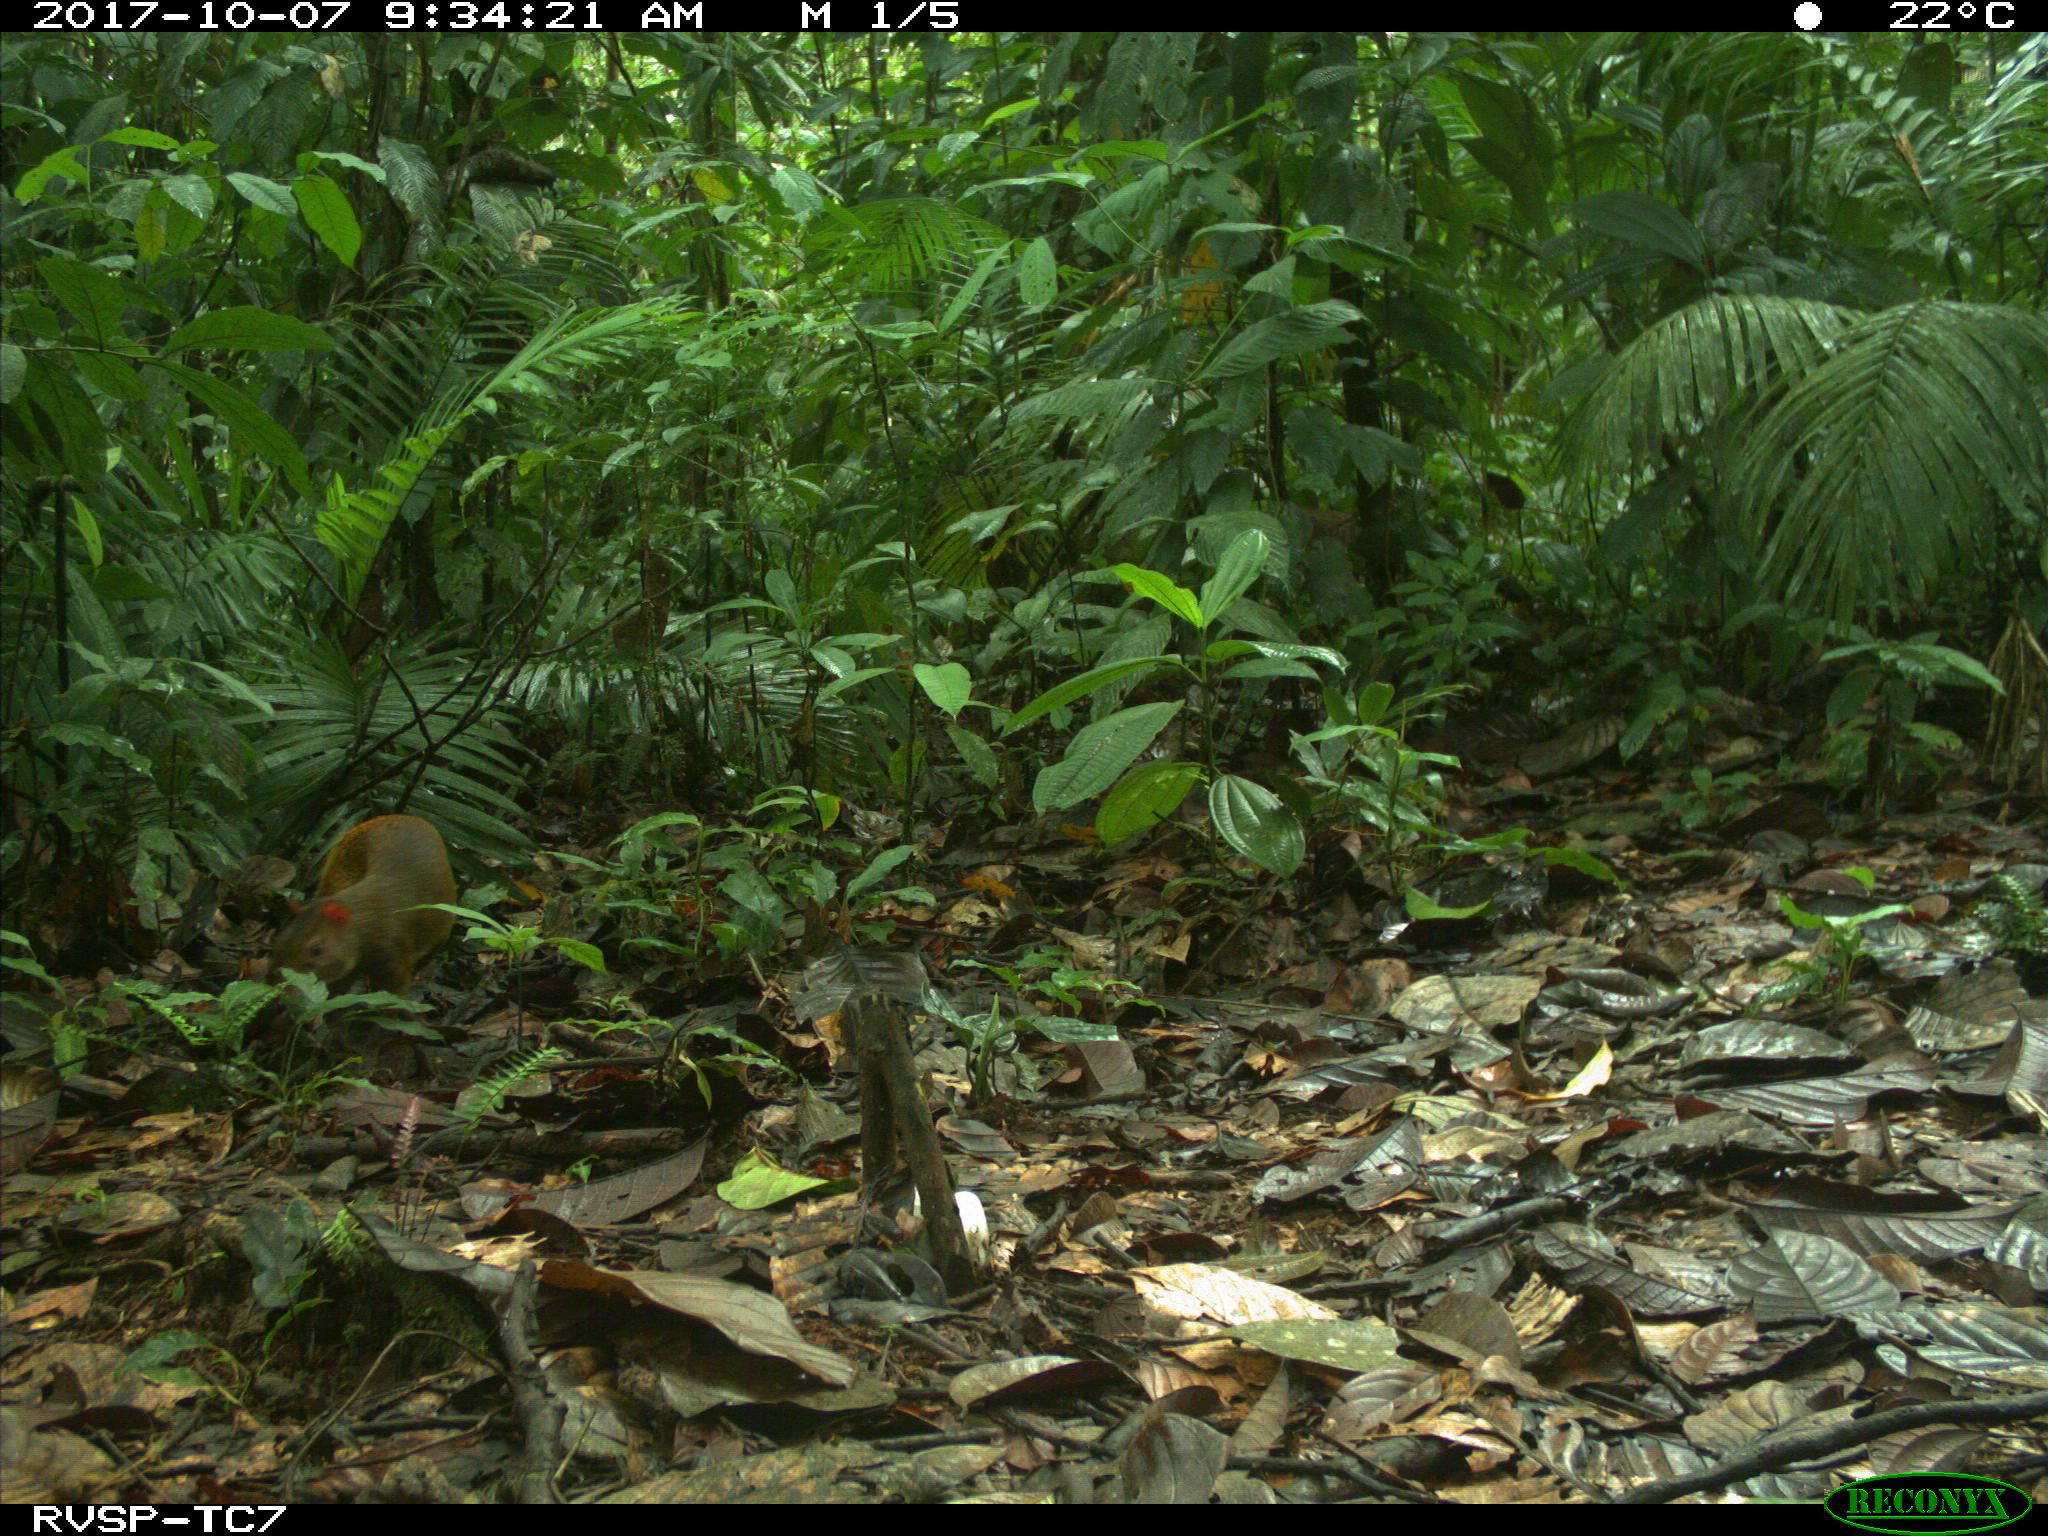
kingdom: Animalia
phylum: Chordata
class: Mammalia
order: Rodentia
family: Dasyproctidae
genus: Dasyprocta
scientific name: Dasyprocta punctata
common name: Central american agouti
